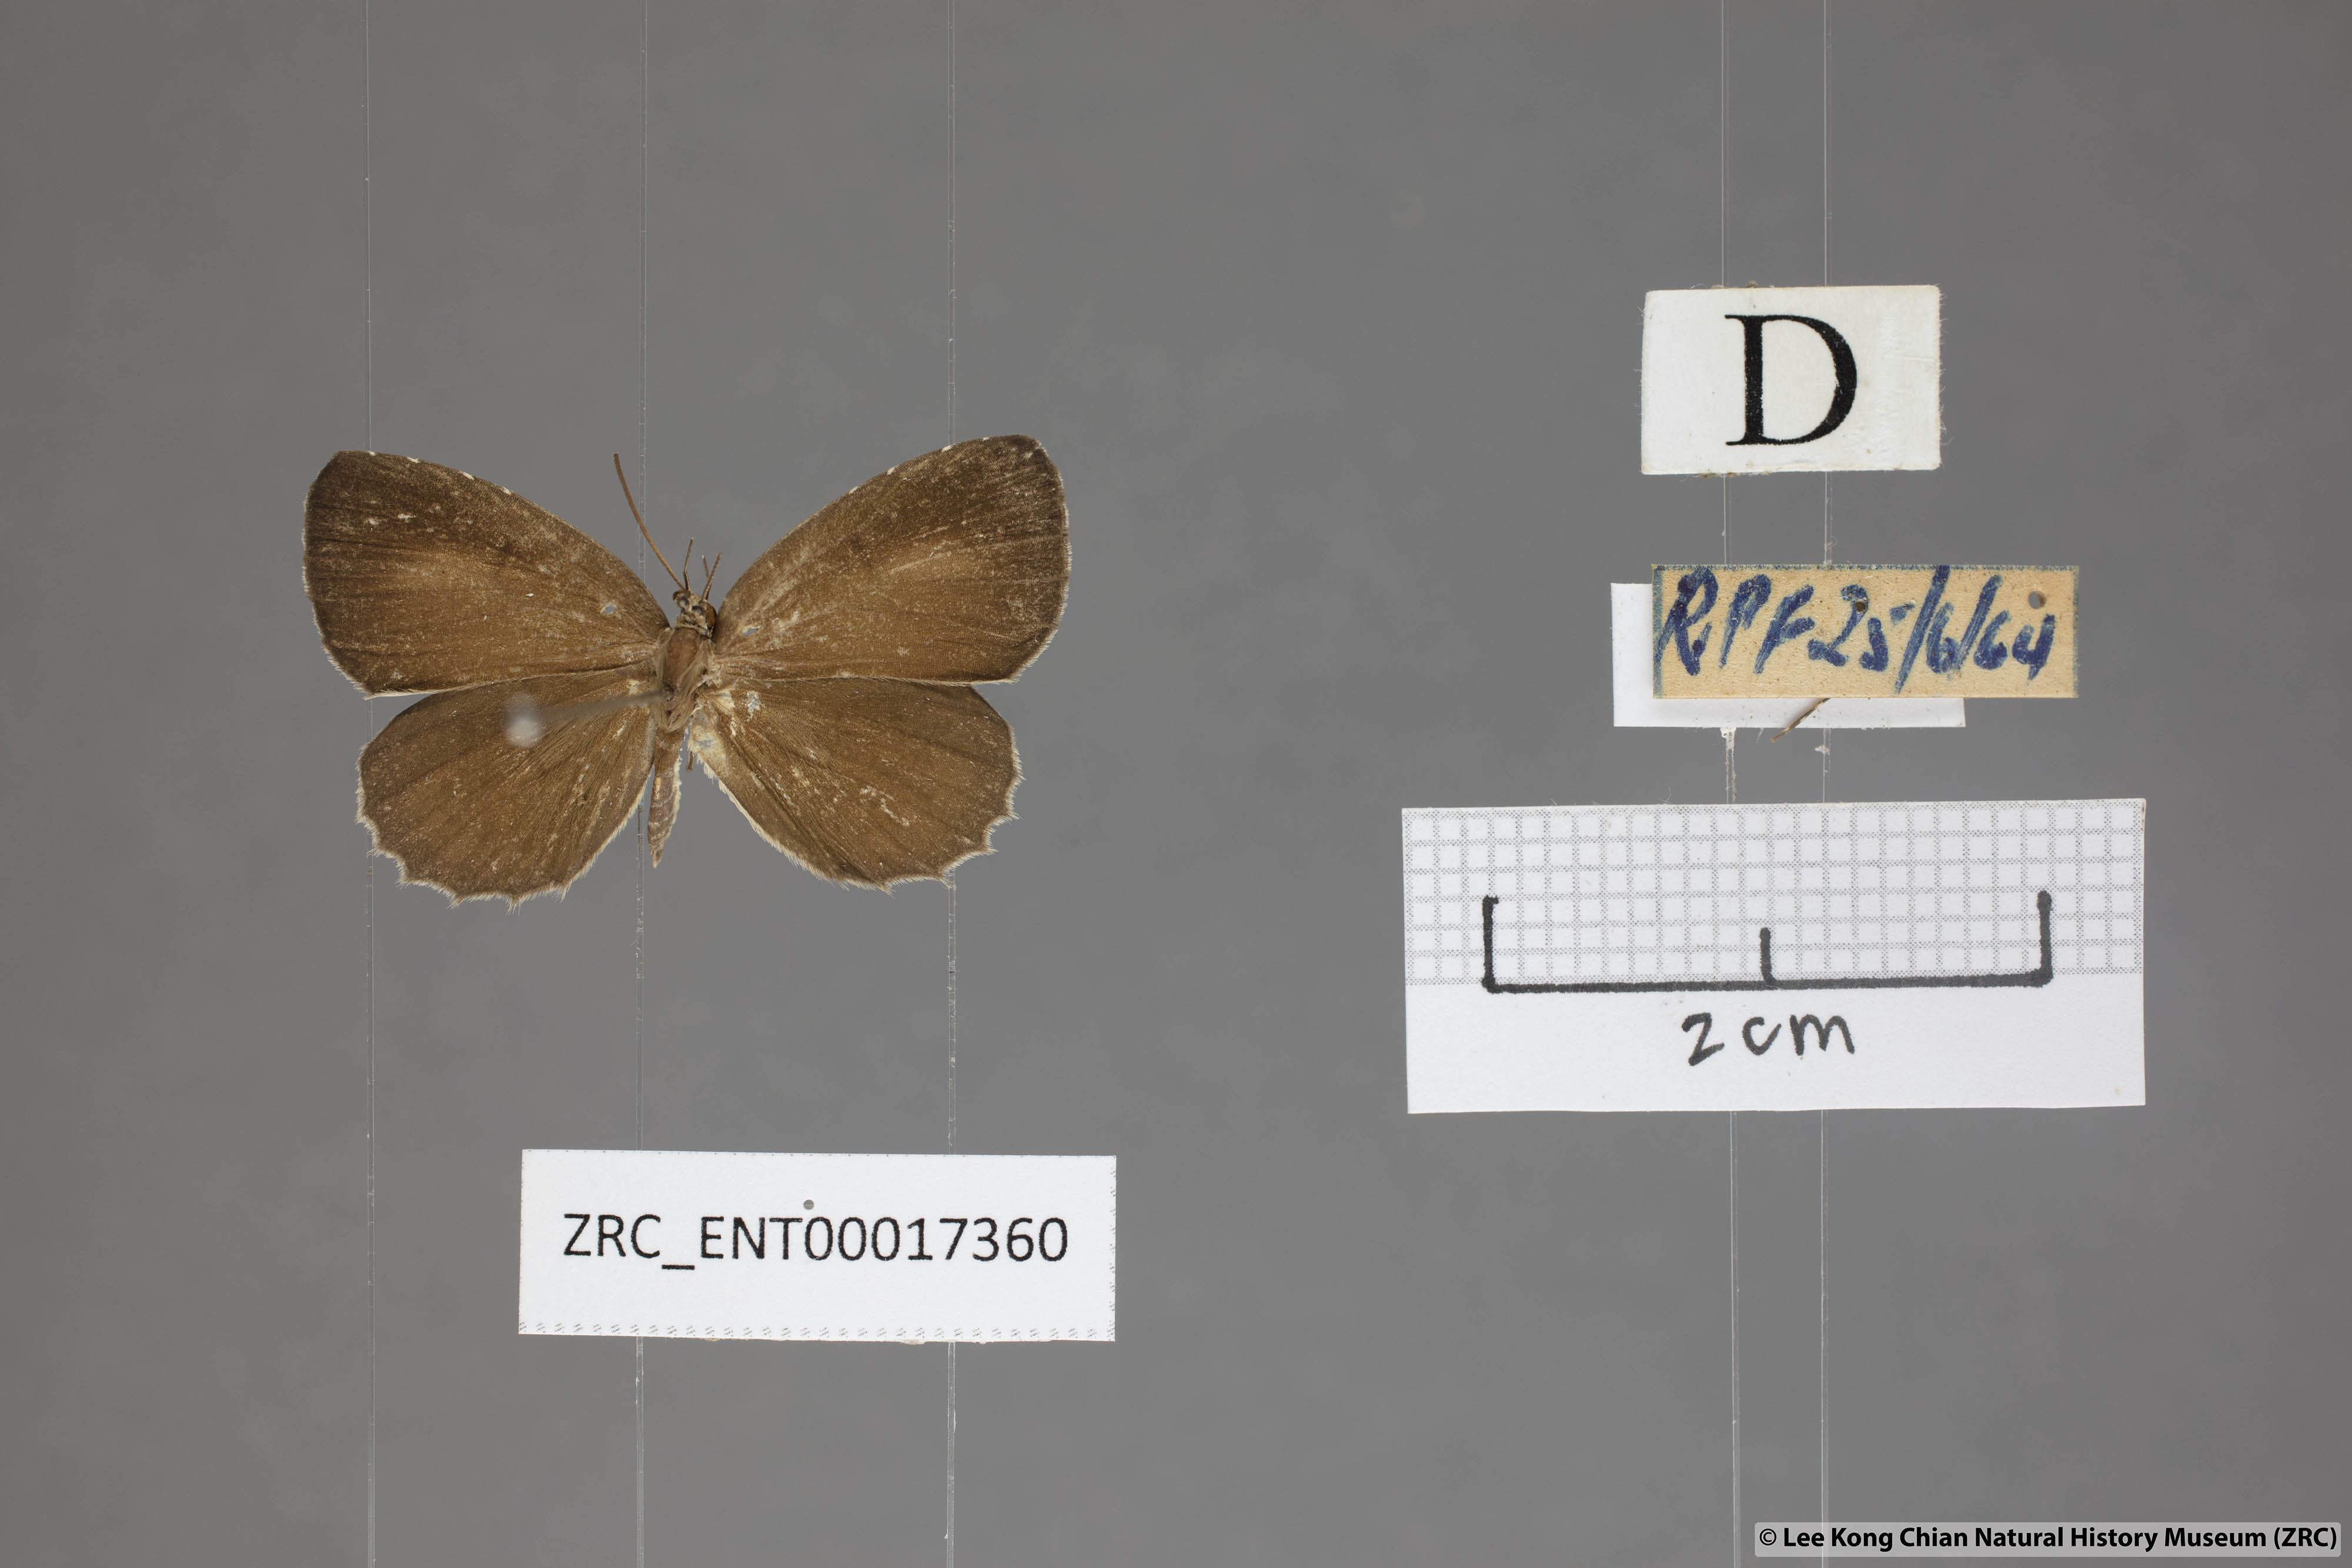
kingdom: Animalia
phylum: Arthropoda
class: Insecta
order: Lepidoptera
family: Lycaenidae
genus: Allotinus
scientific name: Allotinus unicolor
